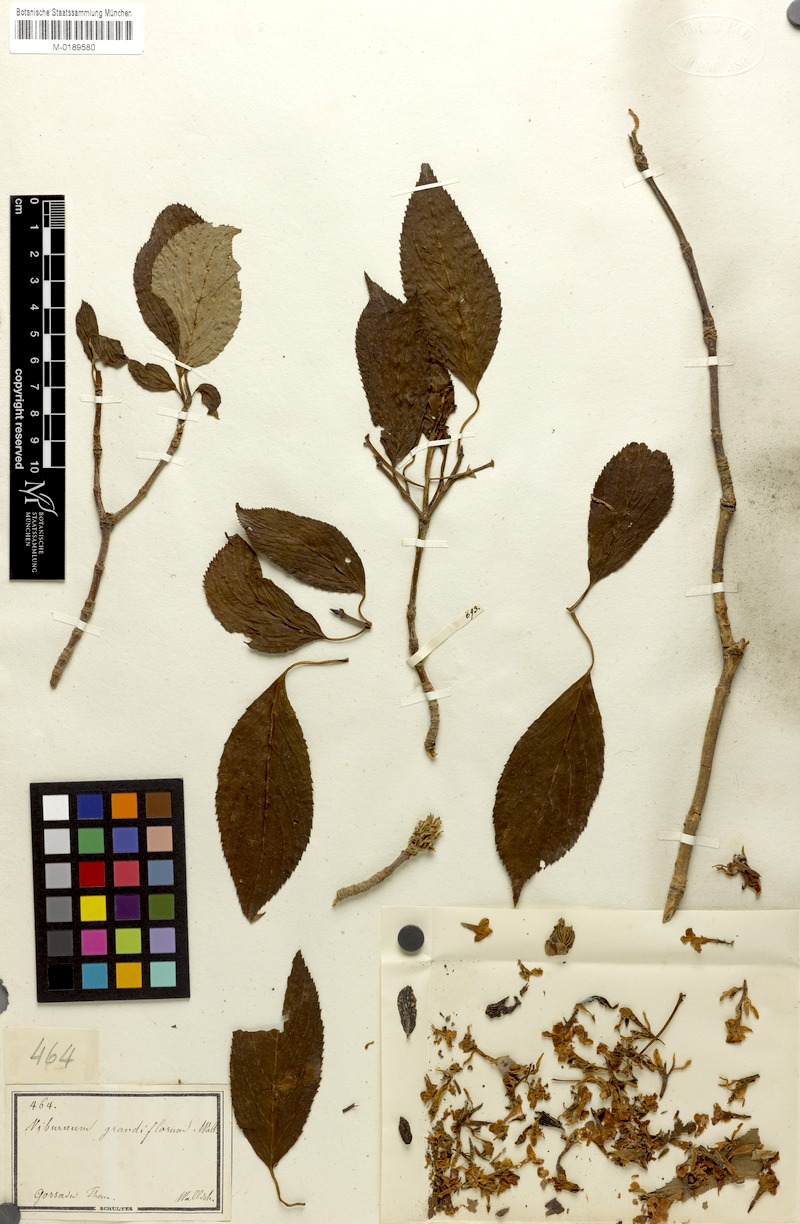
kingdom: Plantae
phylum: Tracheophyta
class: Magnoliopsida
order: Dipsacales
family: Viburnaceae
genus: Viburnum
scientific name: Viburnum grandiflorum
